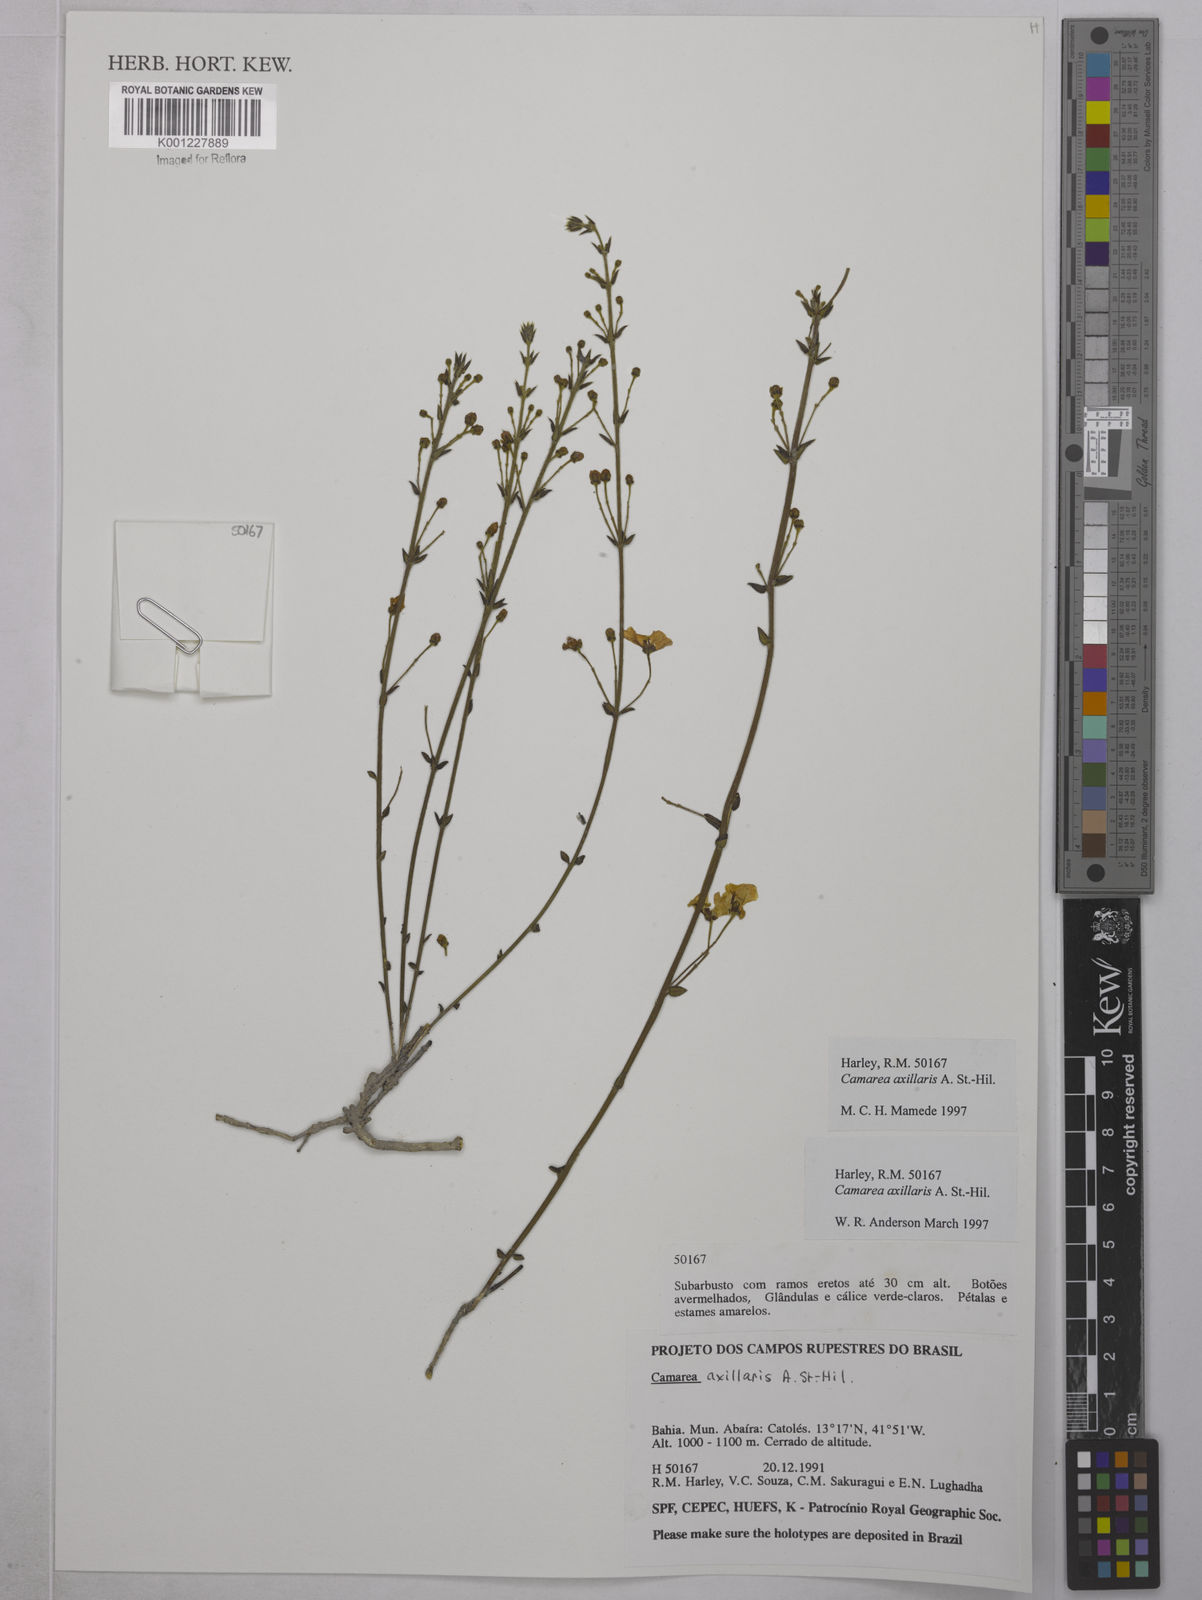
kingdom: Plantae
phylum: Tracheophyta
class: Magnoliopsida
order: Malpighiales
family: Malpighiaceae
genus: Camarea
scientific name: Camarea axillaris
